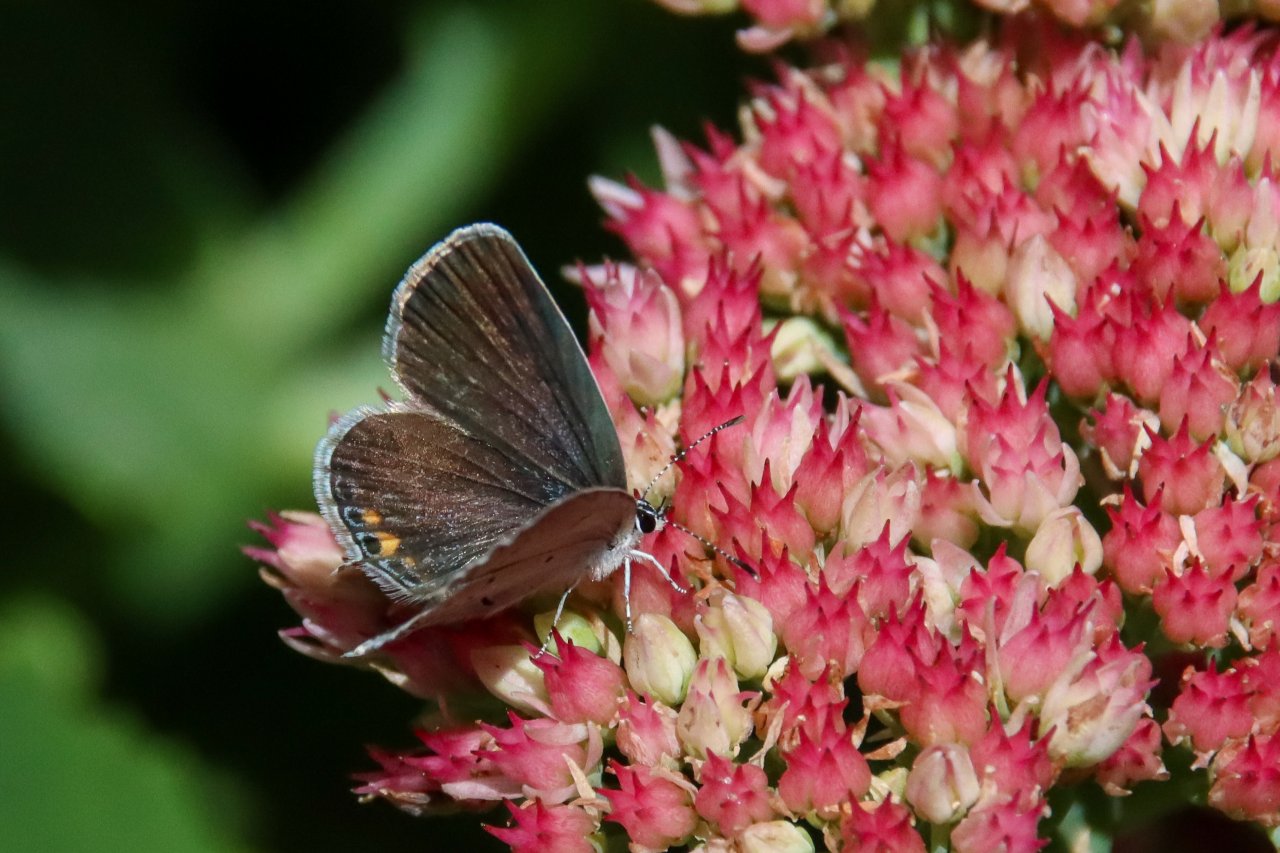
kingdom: Animalia
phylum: Arthropoda
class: Insecta
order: Lepidoptera
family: Lycaenidae
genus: Elkalyce
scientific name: Elkalyce comyntas
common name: Eastern Tailed-Blue
